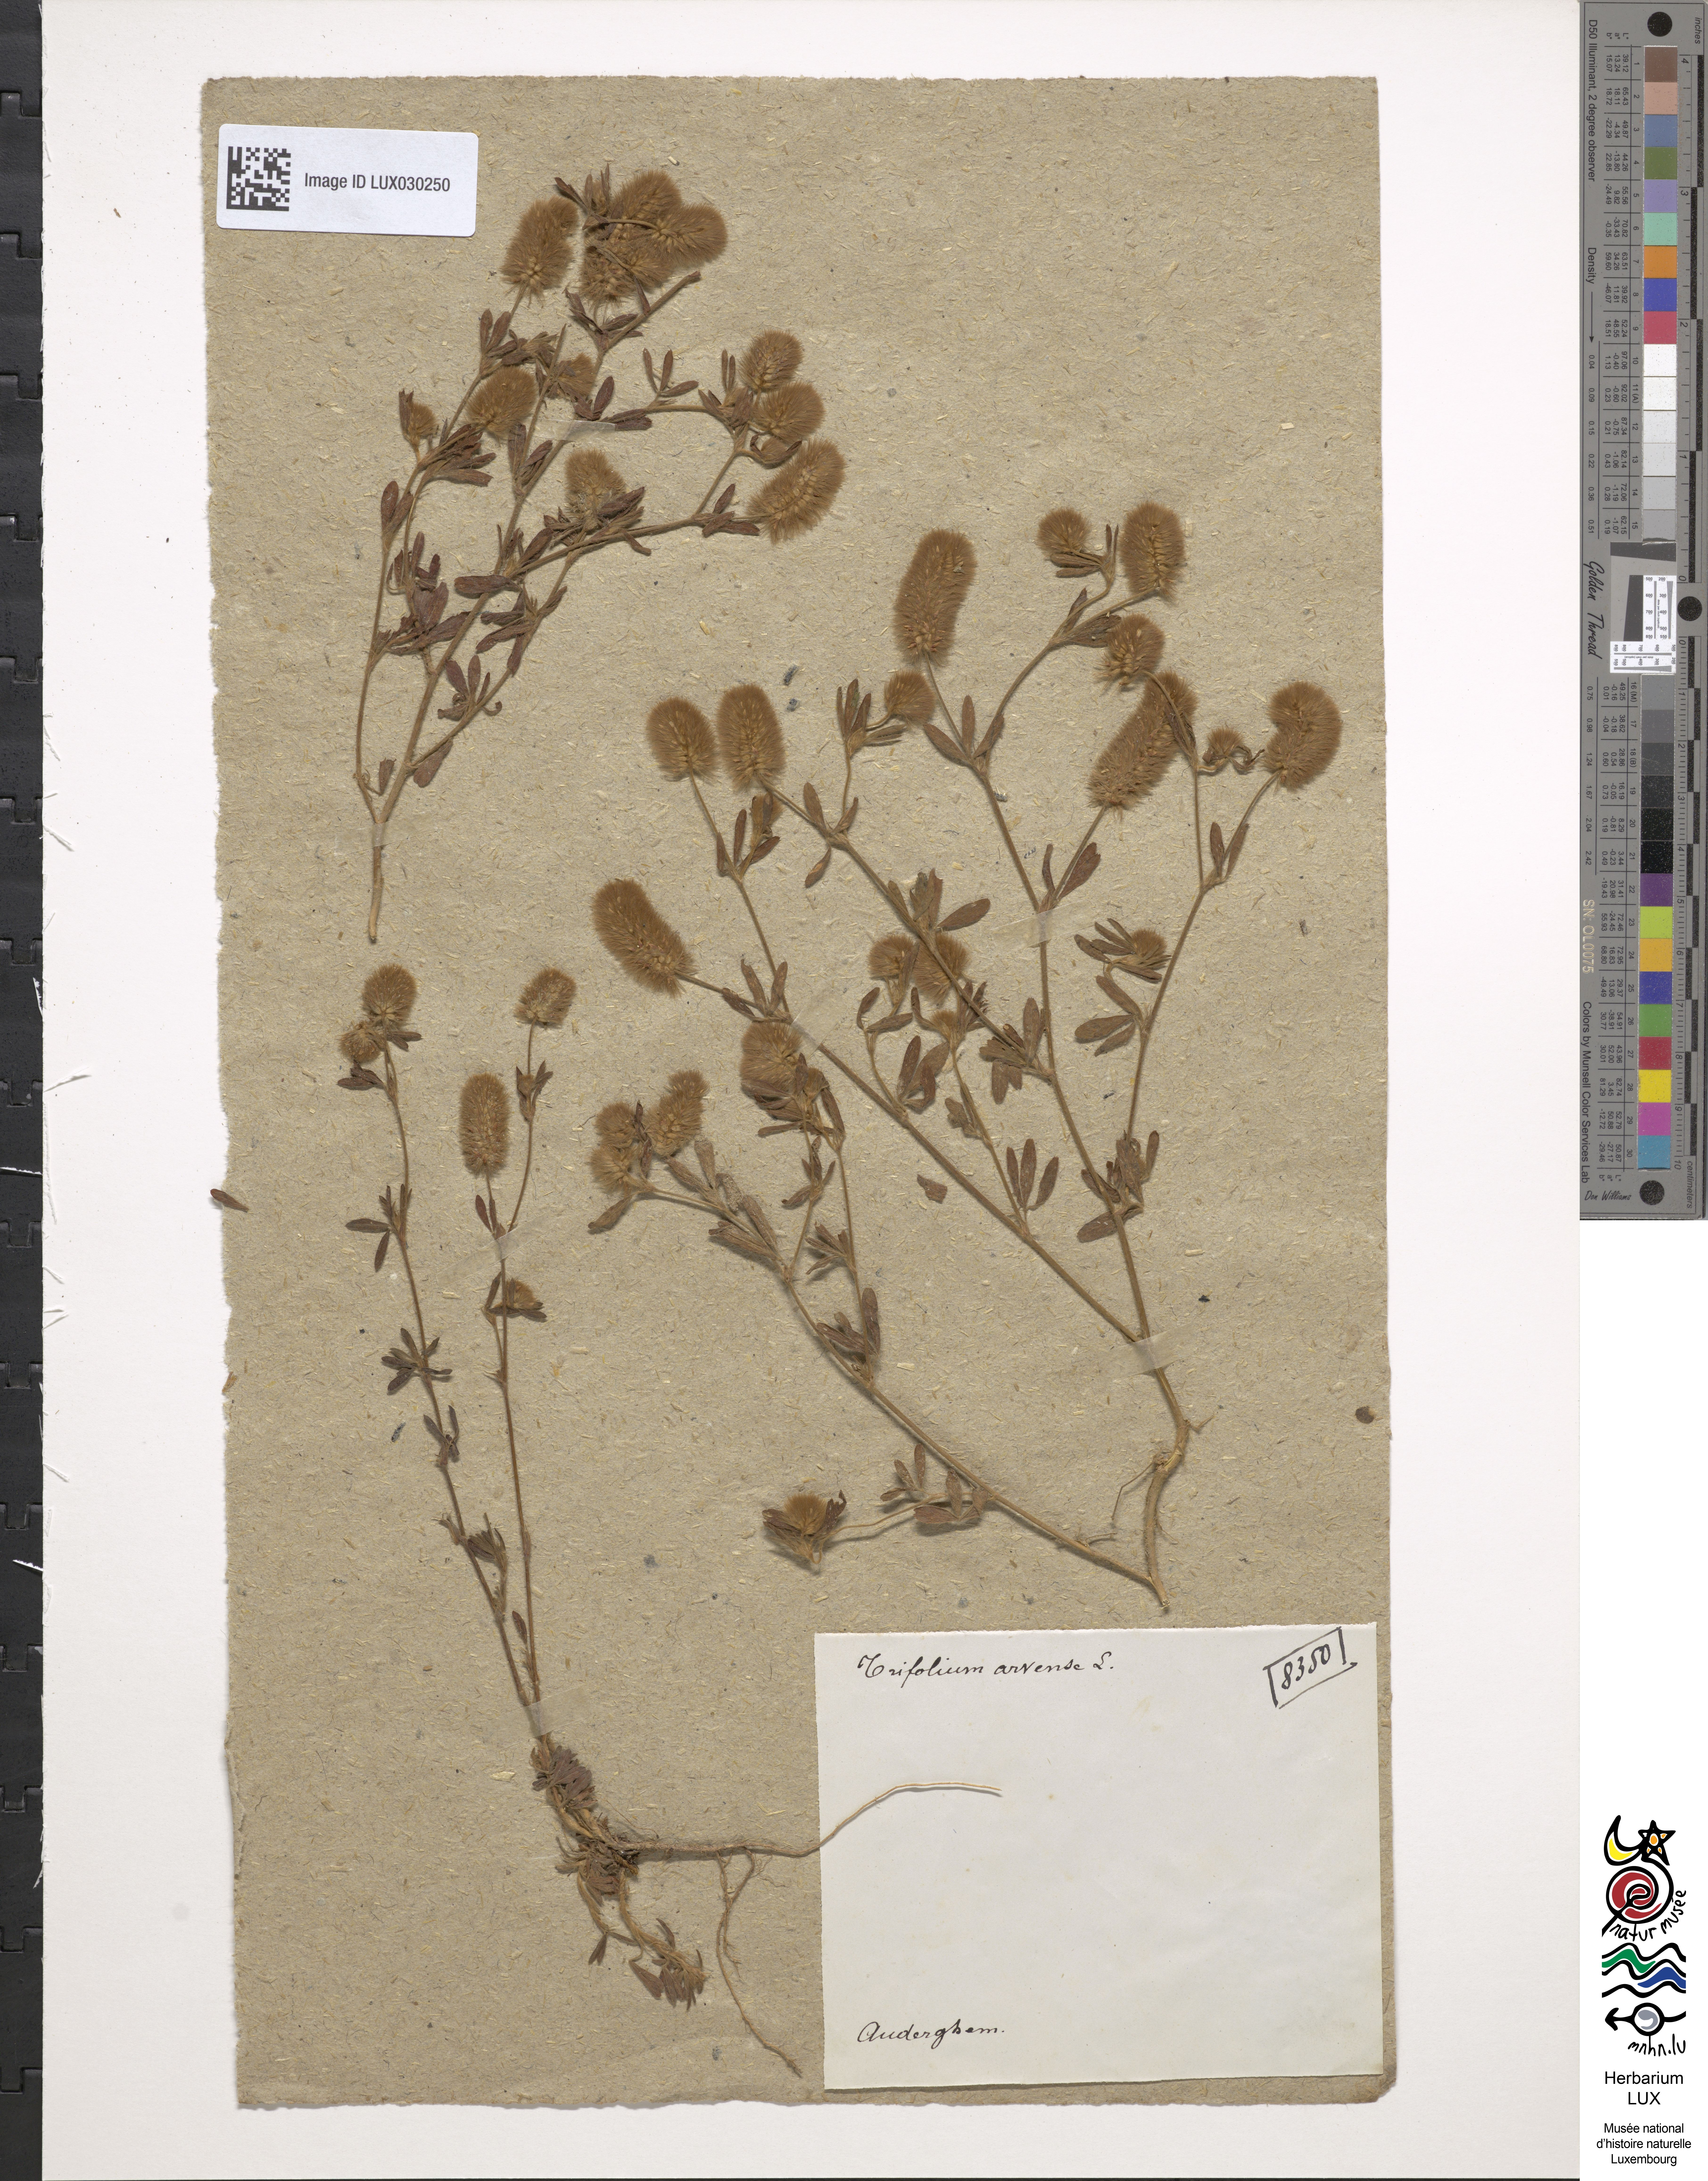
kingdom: Plantae
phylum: Tracheophyta
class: Magnoliopsida
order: Fabales
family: Fabaceae
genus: Trifolium
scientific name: Trifolium arvense
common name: Hare's-foot clover
